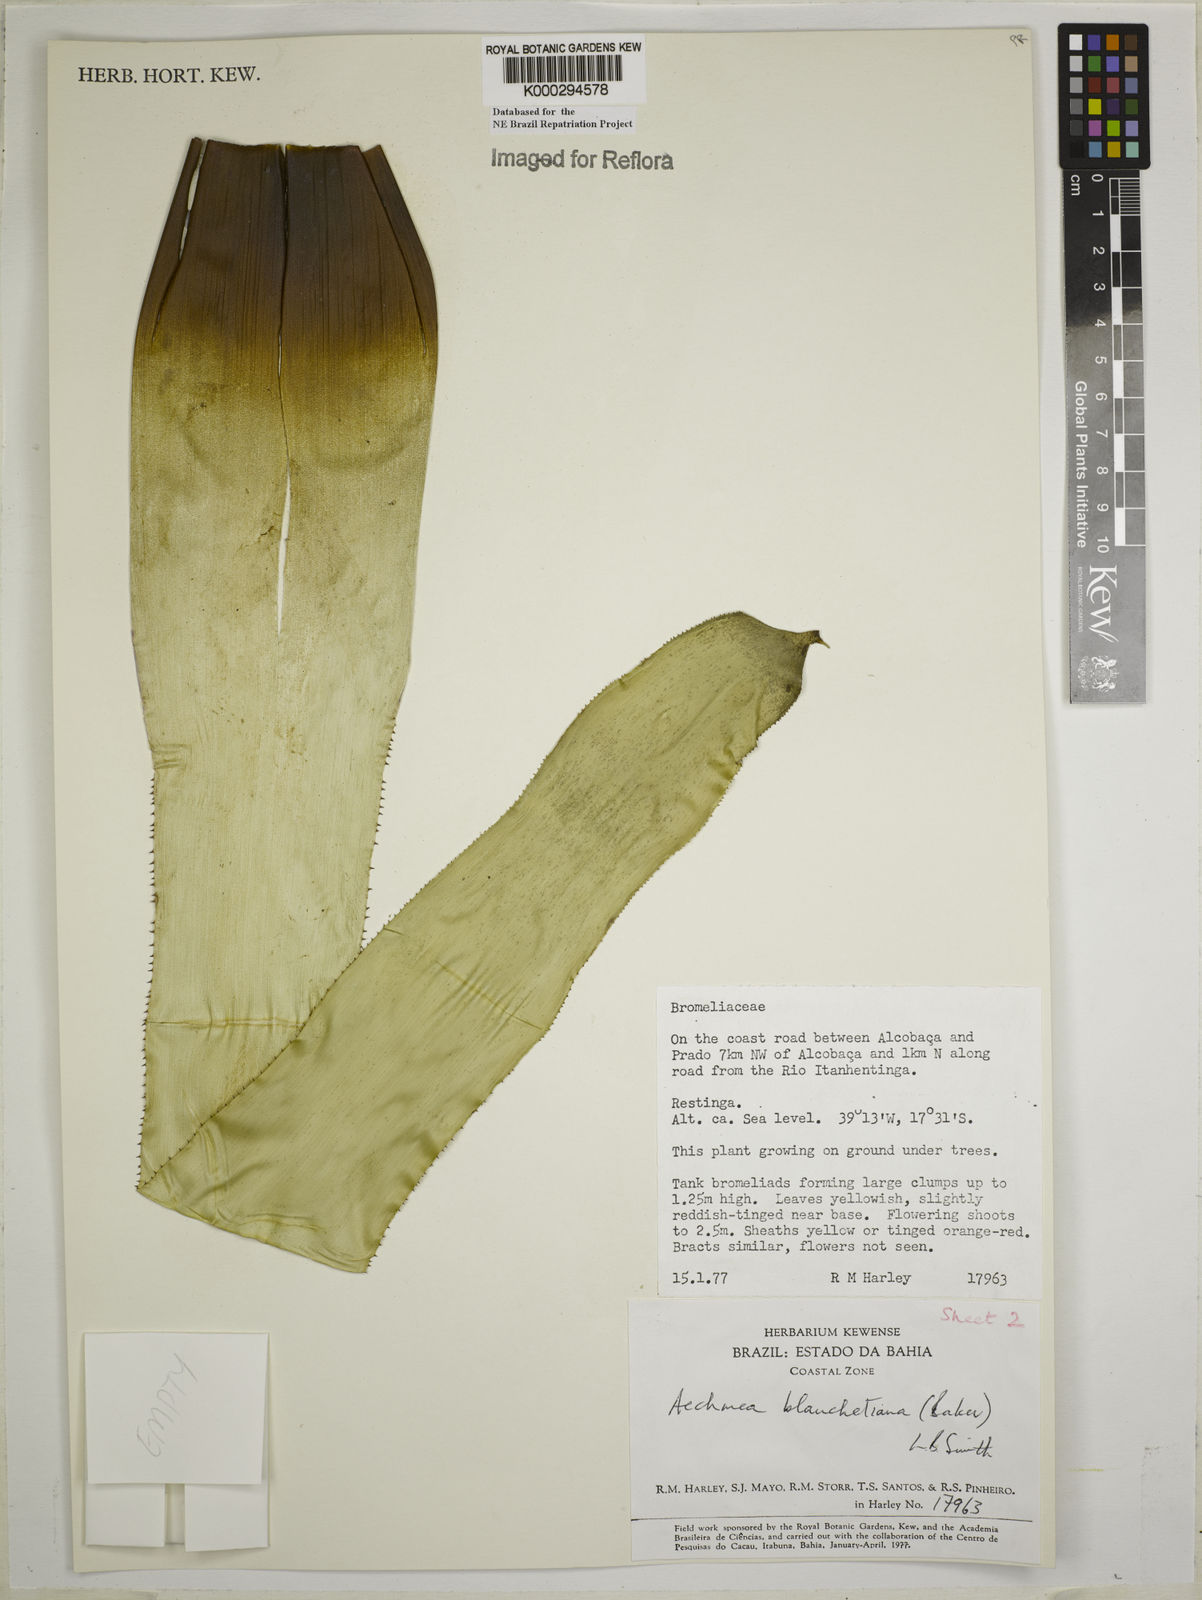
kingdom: Plantae
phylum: Tracheophyta
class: Liliopsida
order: Poales
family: Bromeliaceae
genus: Aechmea
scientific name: Aechmea blanchetiana
